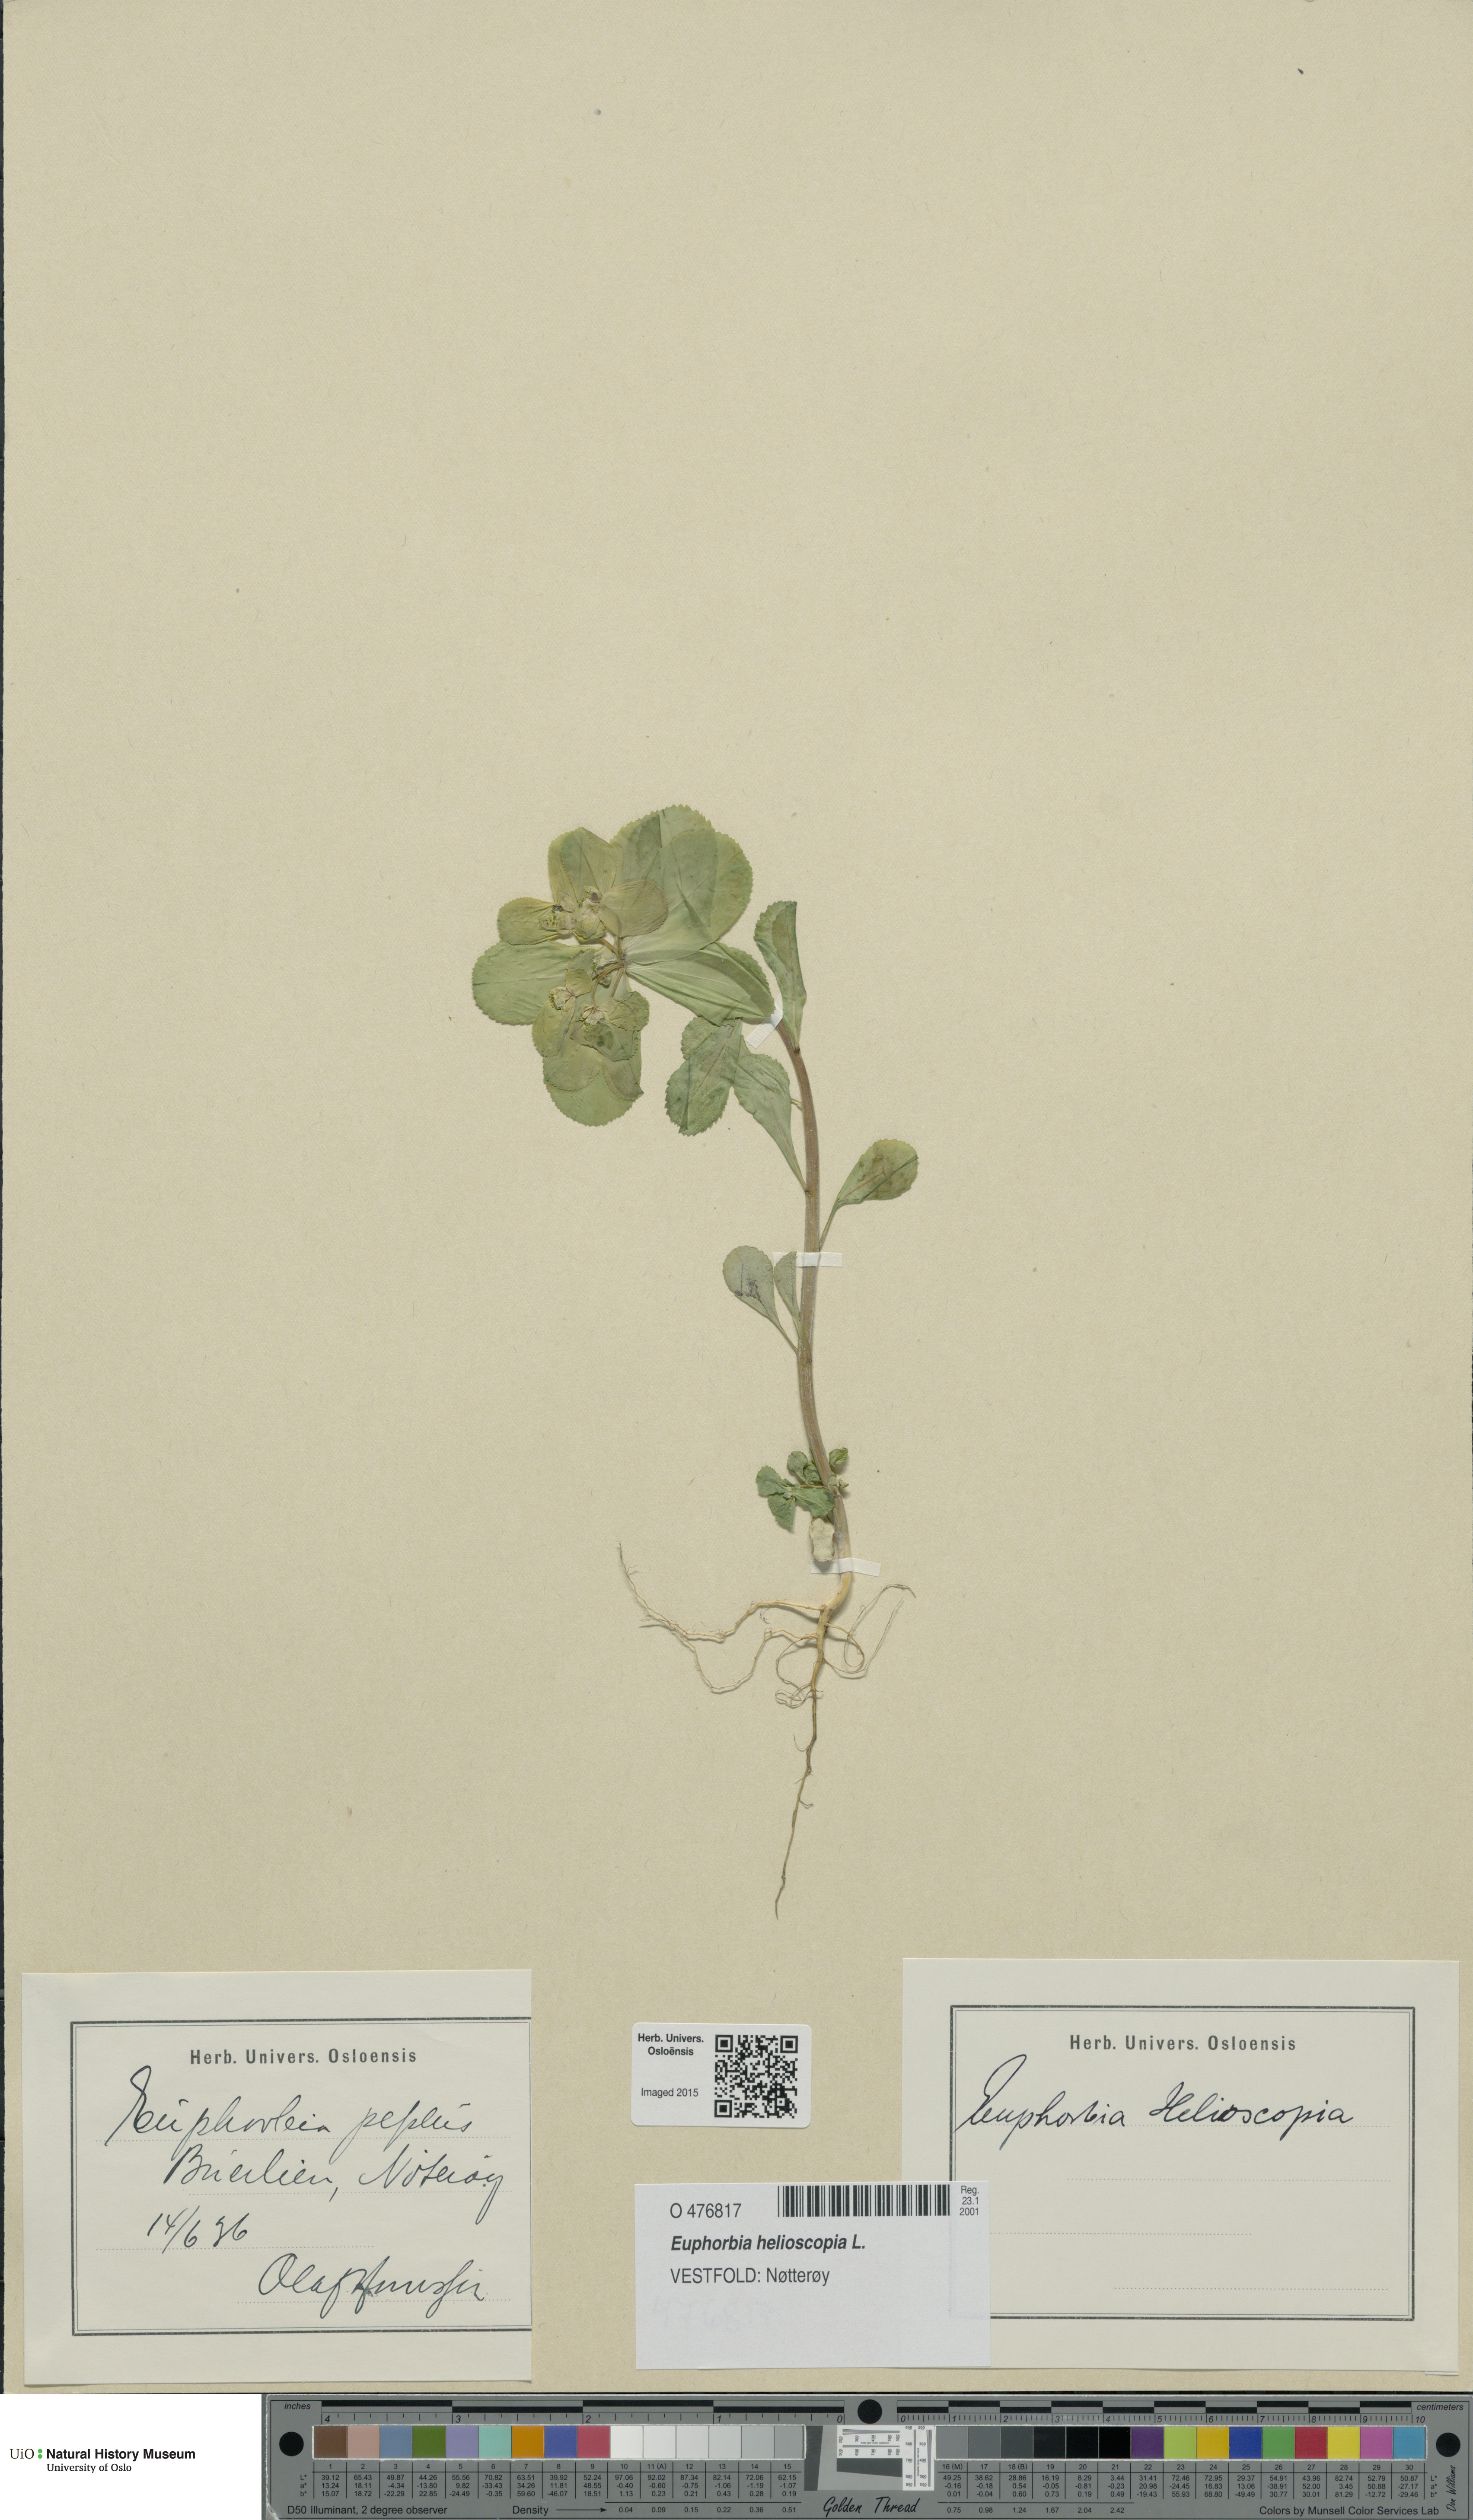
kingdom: Plantae
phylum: Tracheophyta
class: Magnoliopsida
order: Malpighiales
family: Euphorbiaceae
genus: Euphorbia
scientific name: Euphorbia helioscopia
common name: Sun spurge
